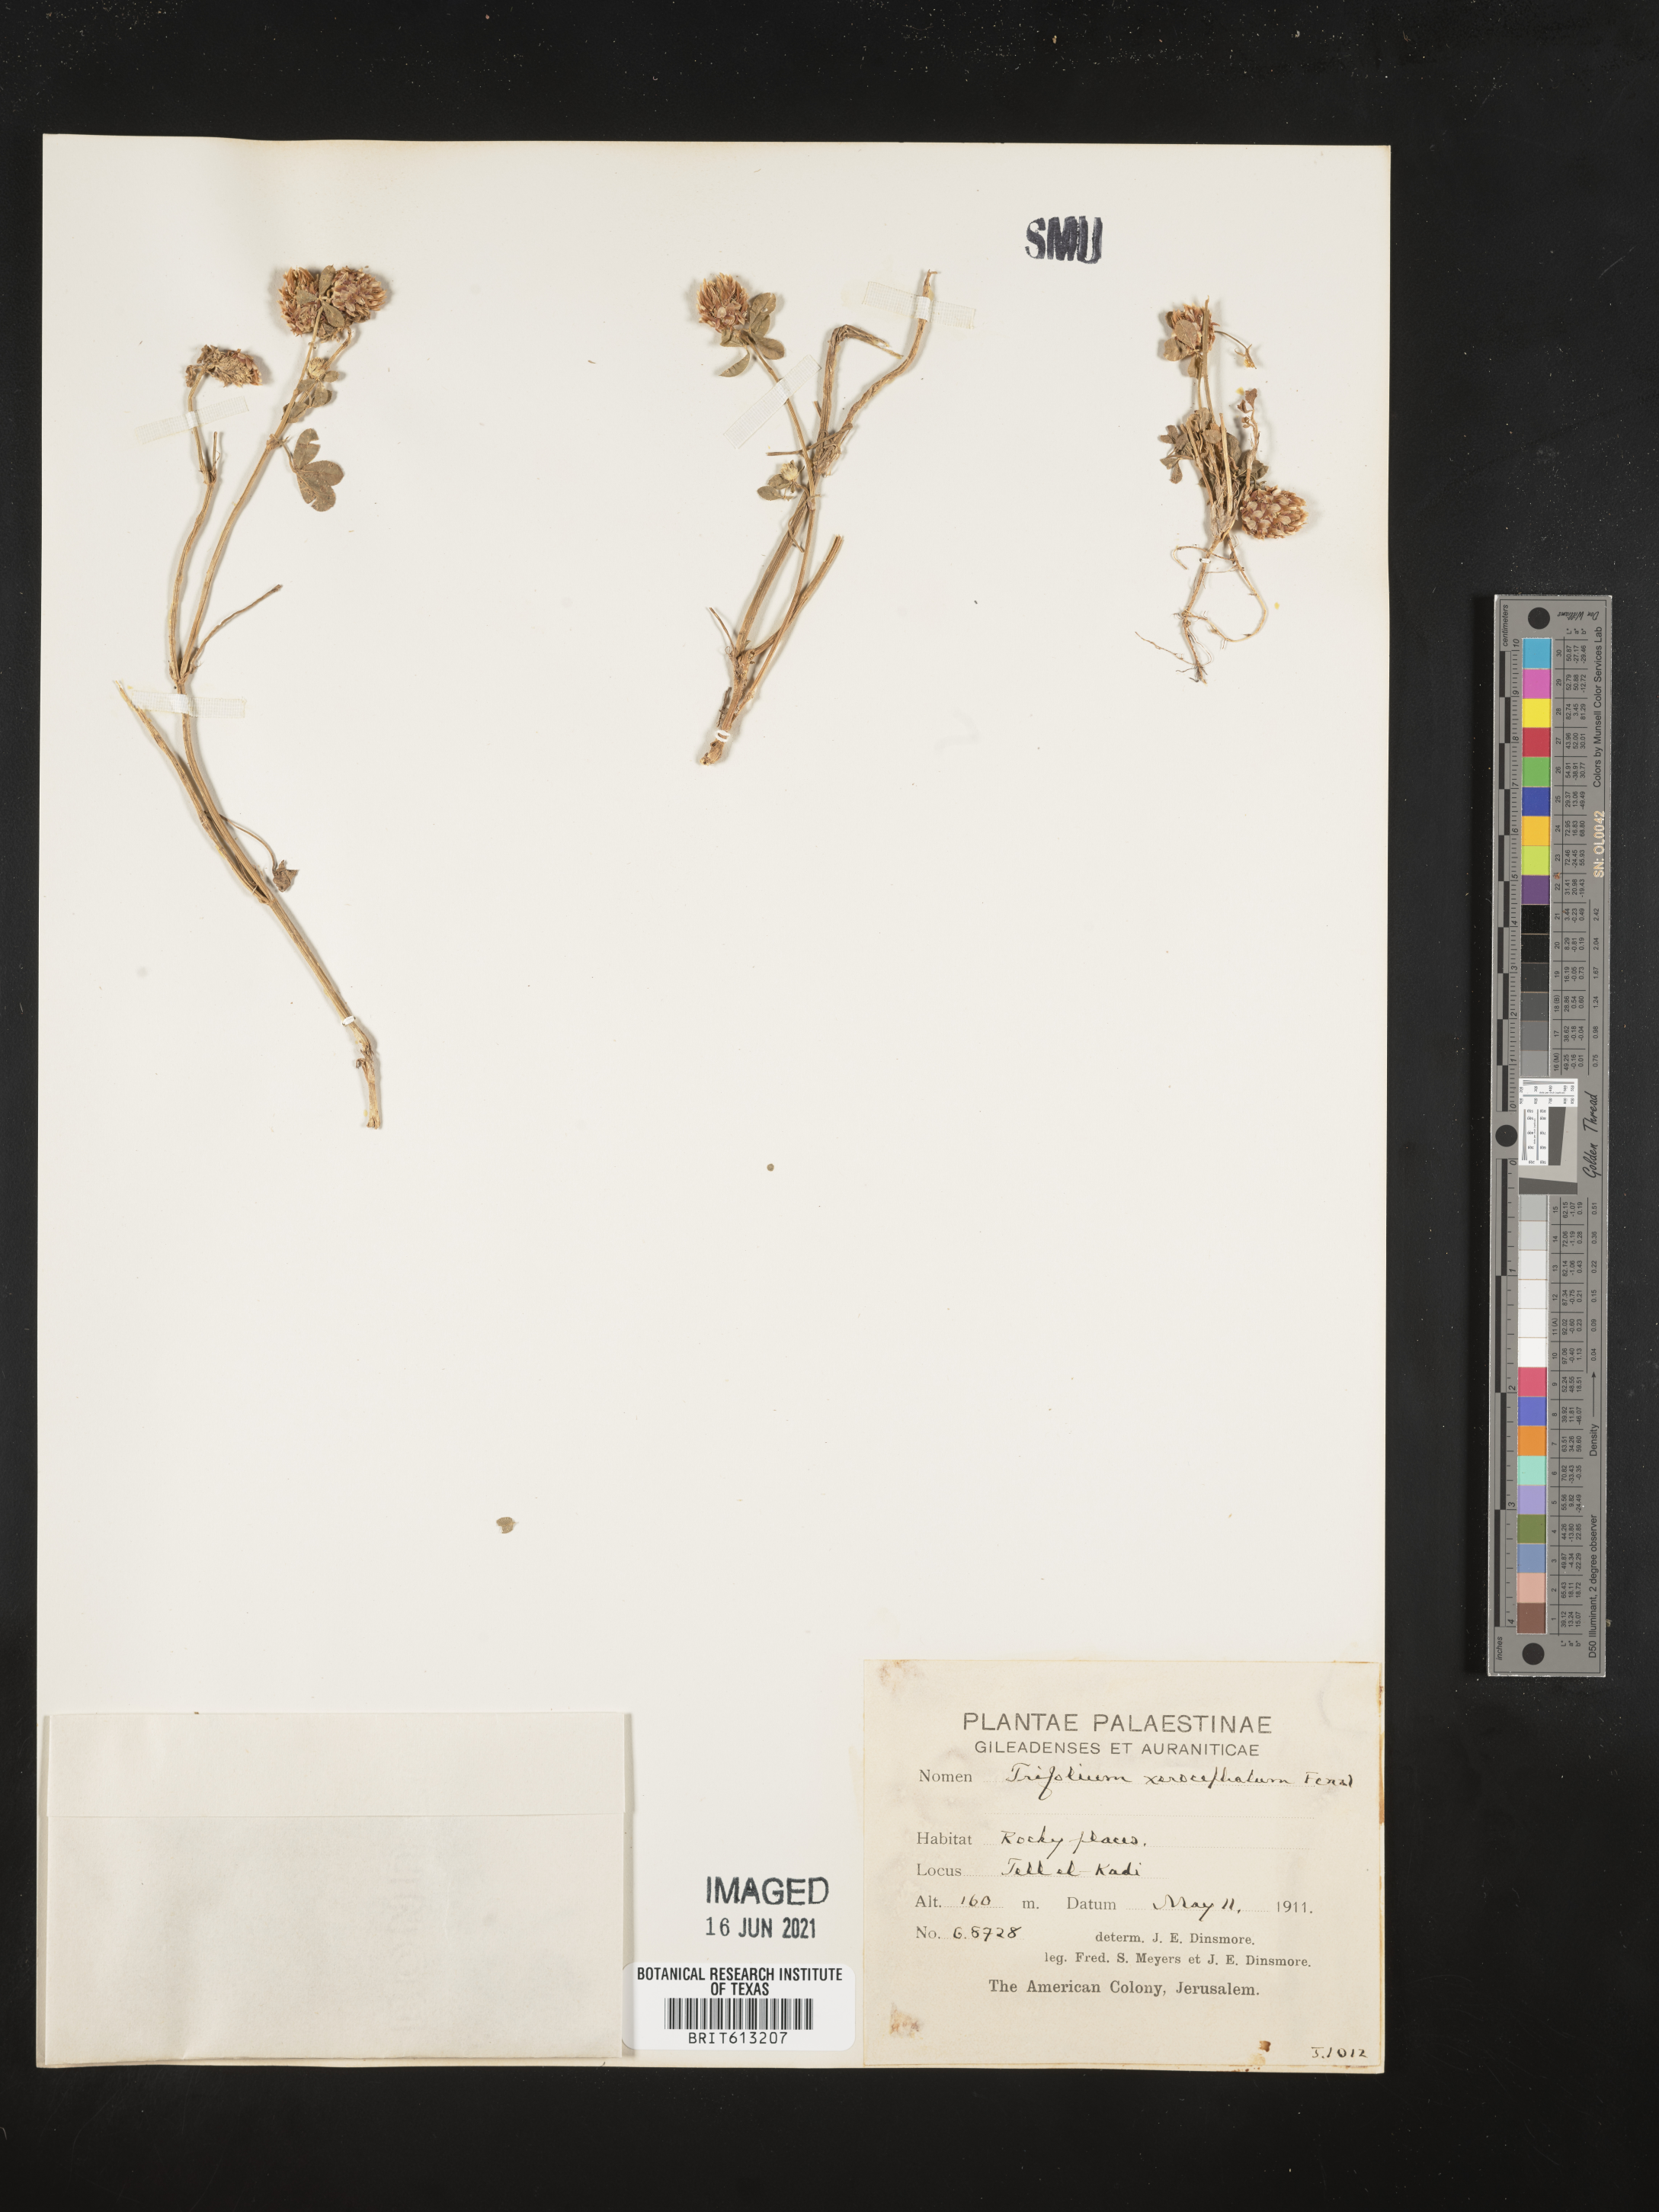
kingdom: Plantae
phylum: Tracheophyta
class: Magnoliopsida
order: Fabales
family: Fabaceae
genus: Trifolium
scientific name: Trifolium argutum
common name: Sharp-tooth clover
